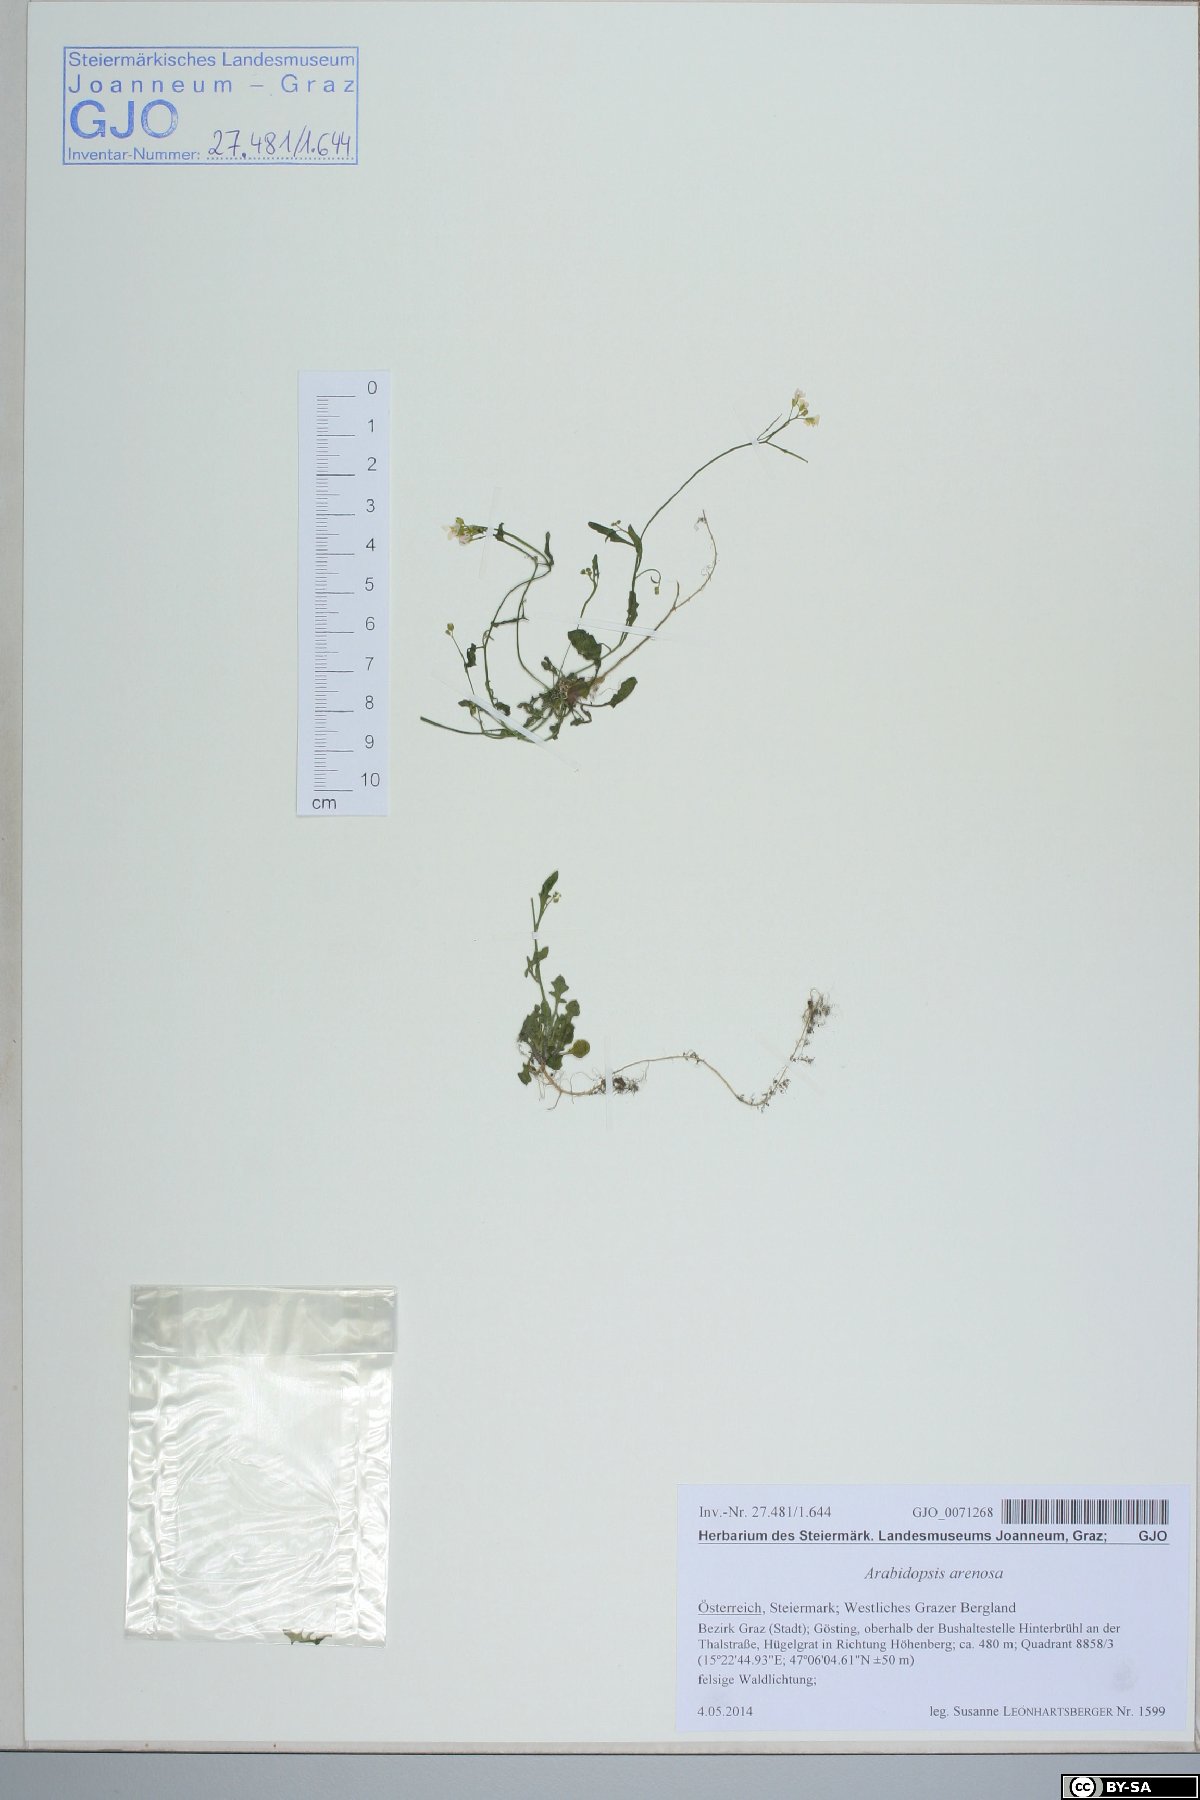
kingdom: Plantae
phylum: Tracheophyta
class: Magnoliopsida
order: Brassicales
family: Brassicaceae
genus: Arabidopsis
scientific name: Arabidopsis arenosa
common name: Sand rock-cress
